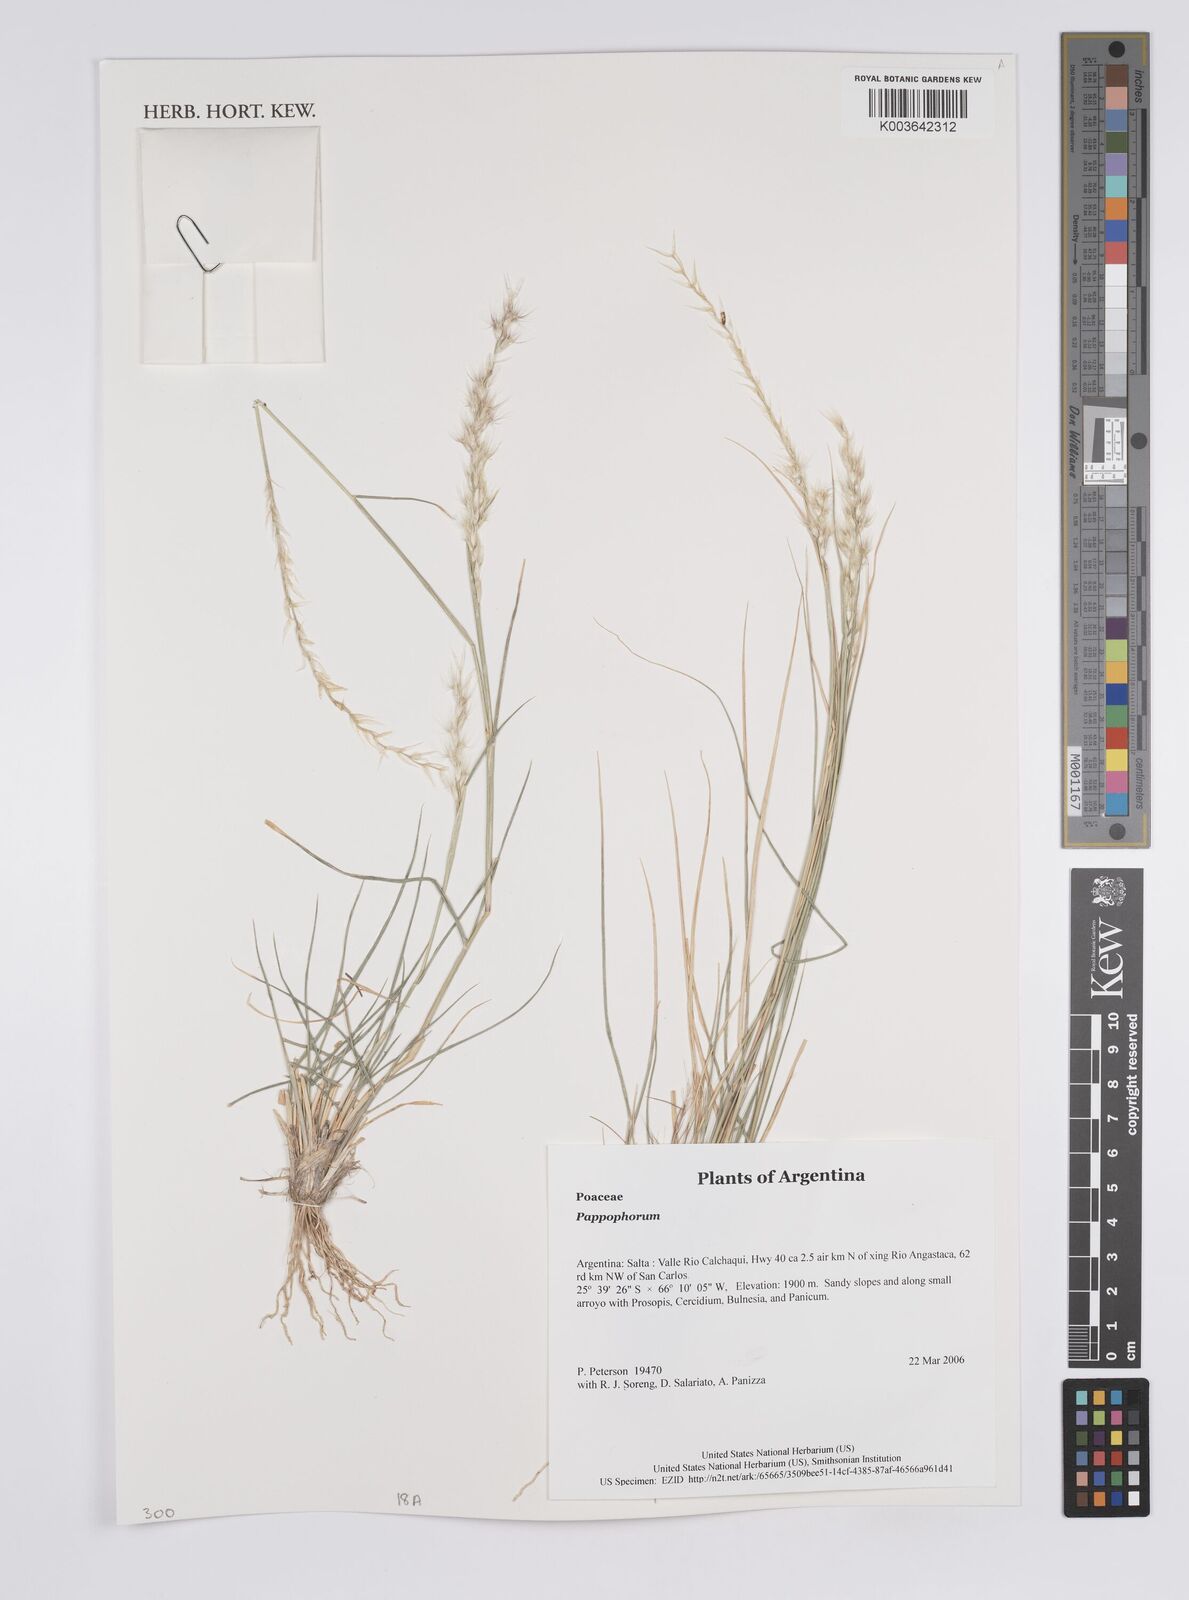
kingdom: Plantae
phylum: Tracheophyta
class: Liliopsida
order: Poales
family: Poaceae
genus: Pappophorum
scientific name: Pappophorum
